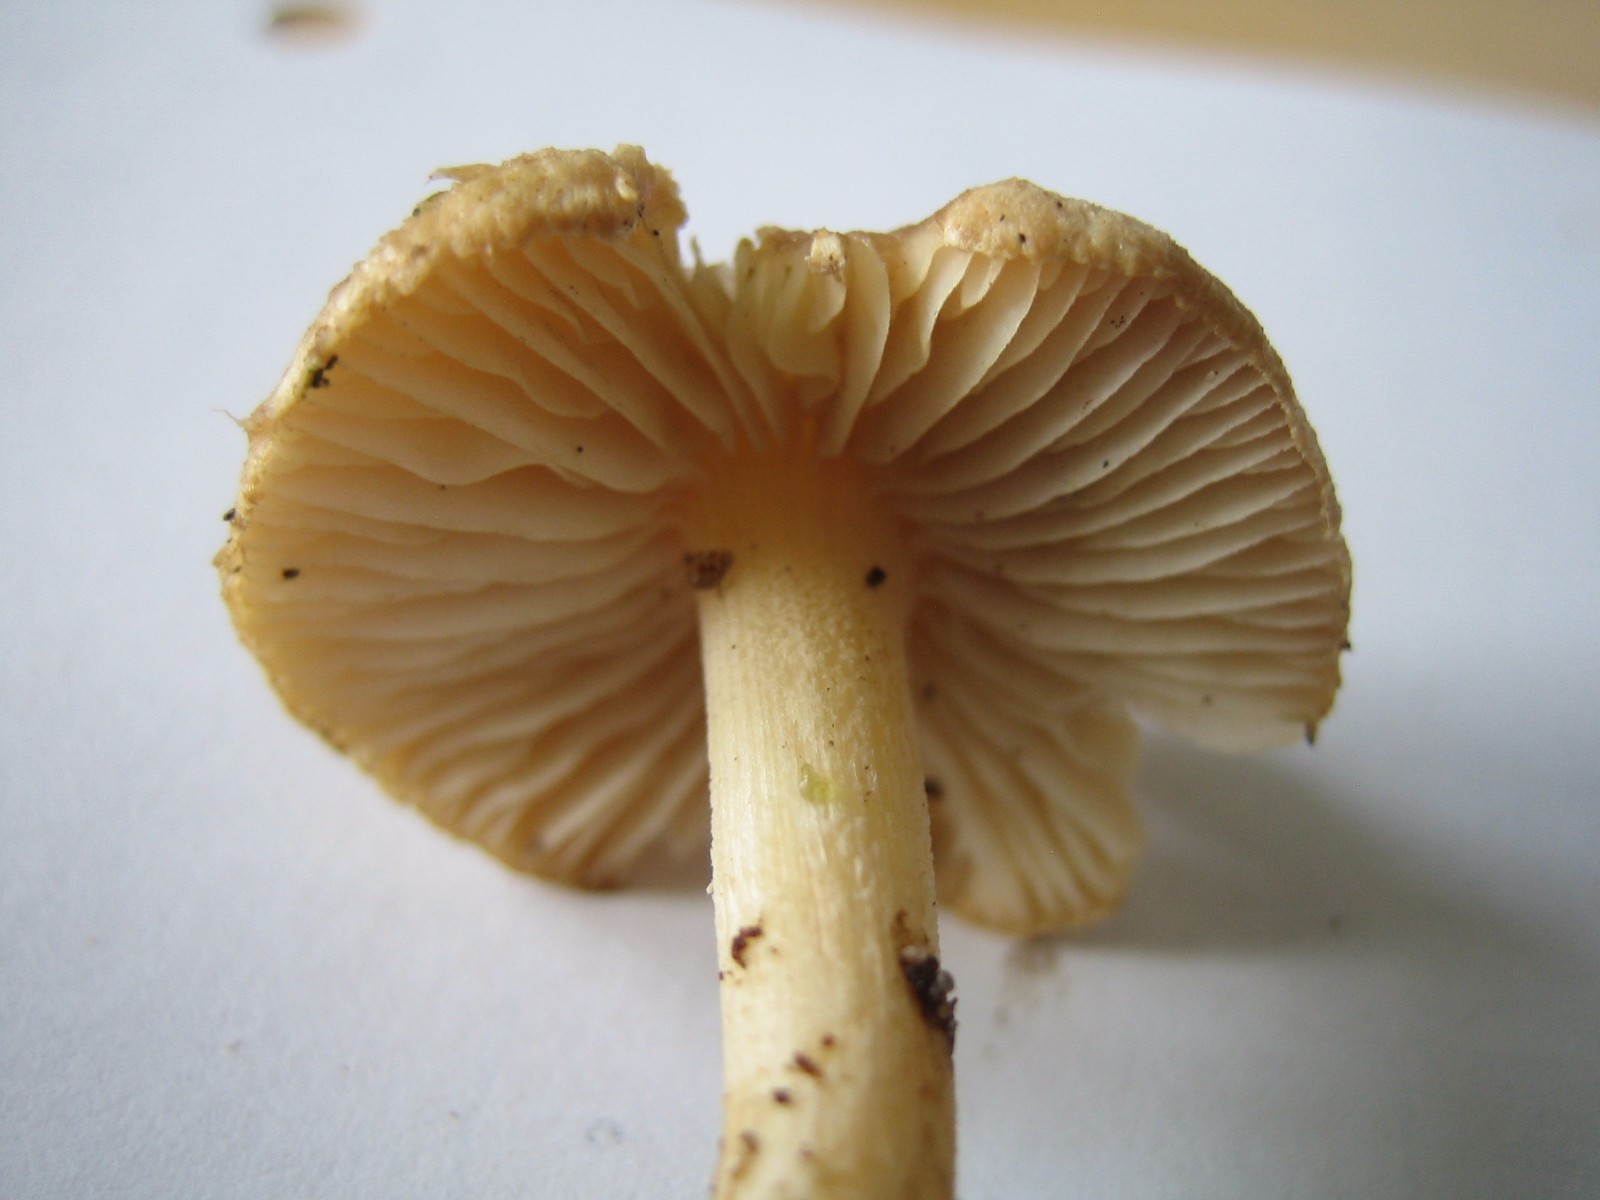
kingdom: Fungi
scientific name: Fungi
